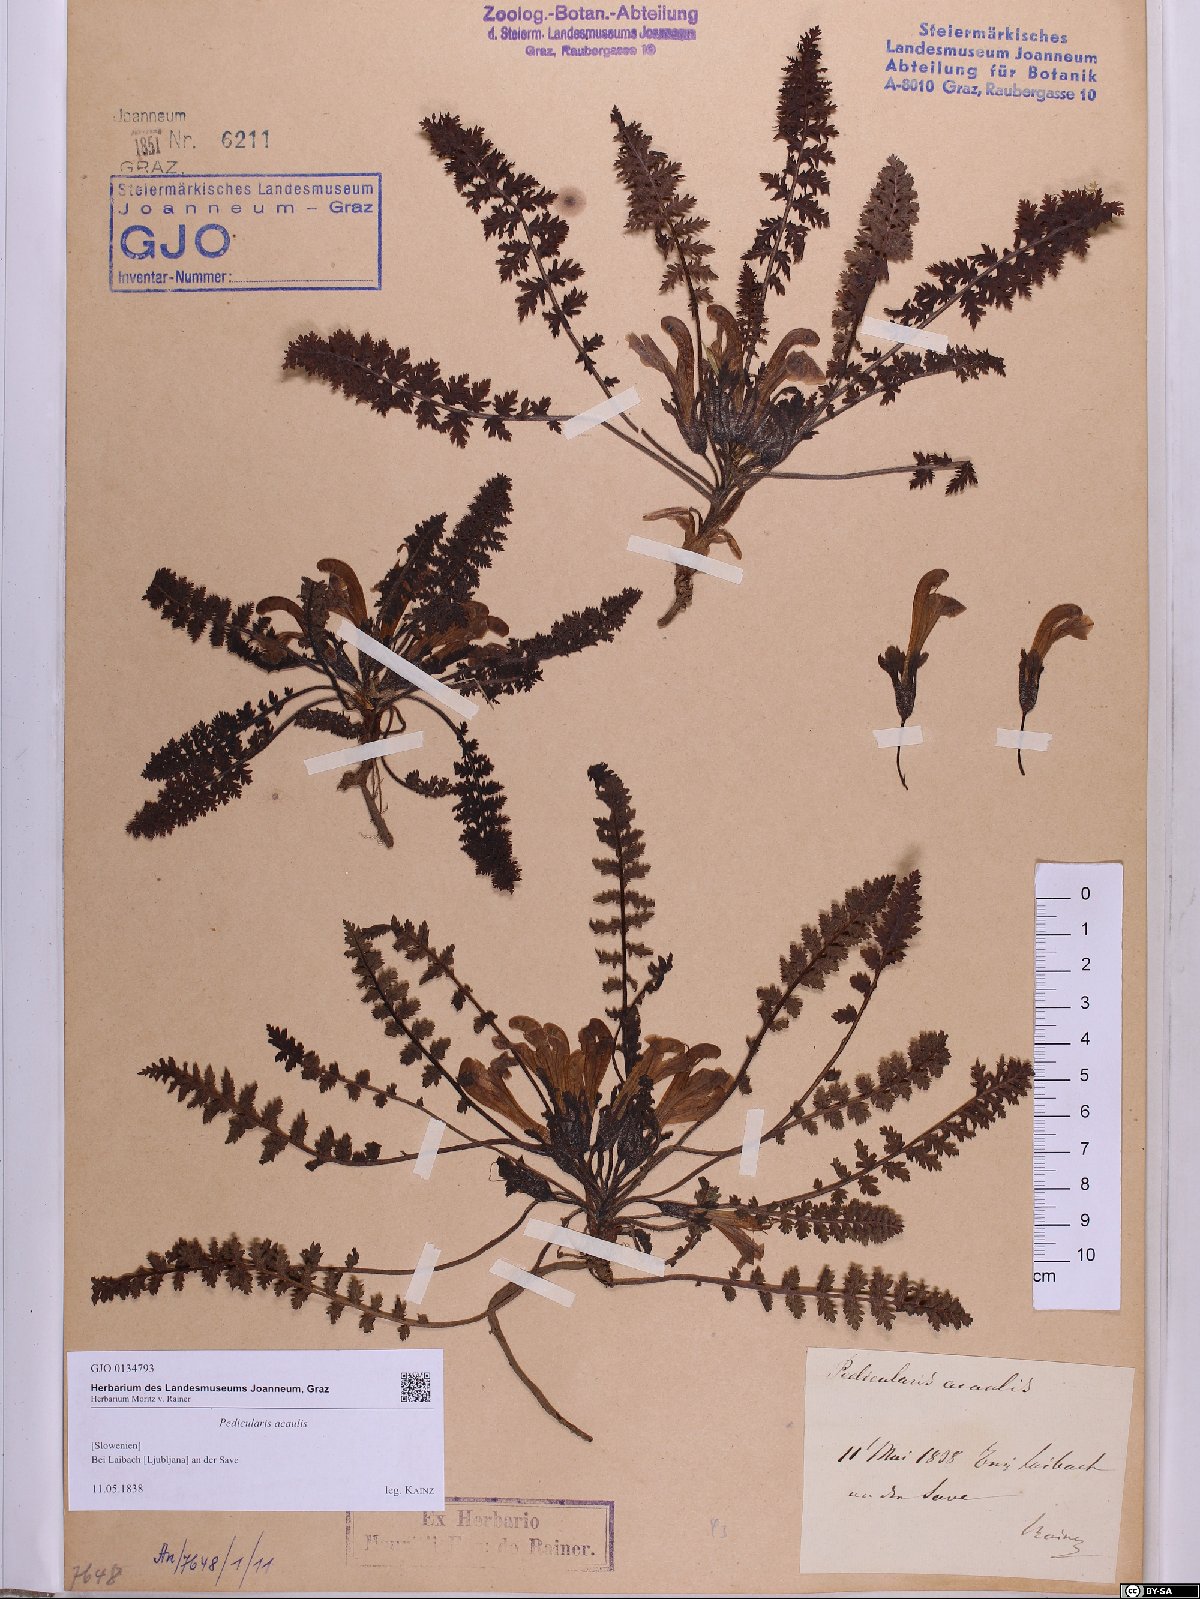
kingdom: Plantae
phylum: Tracheophyta
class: Magnoliopsida
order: Lamiales
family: Orobanchaceae
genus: Pedicularis
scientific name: Pedicularis acaulis
